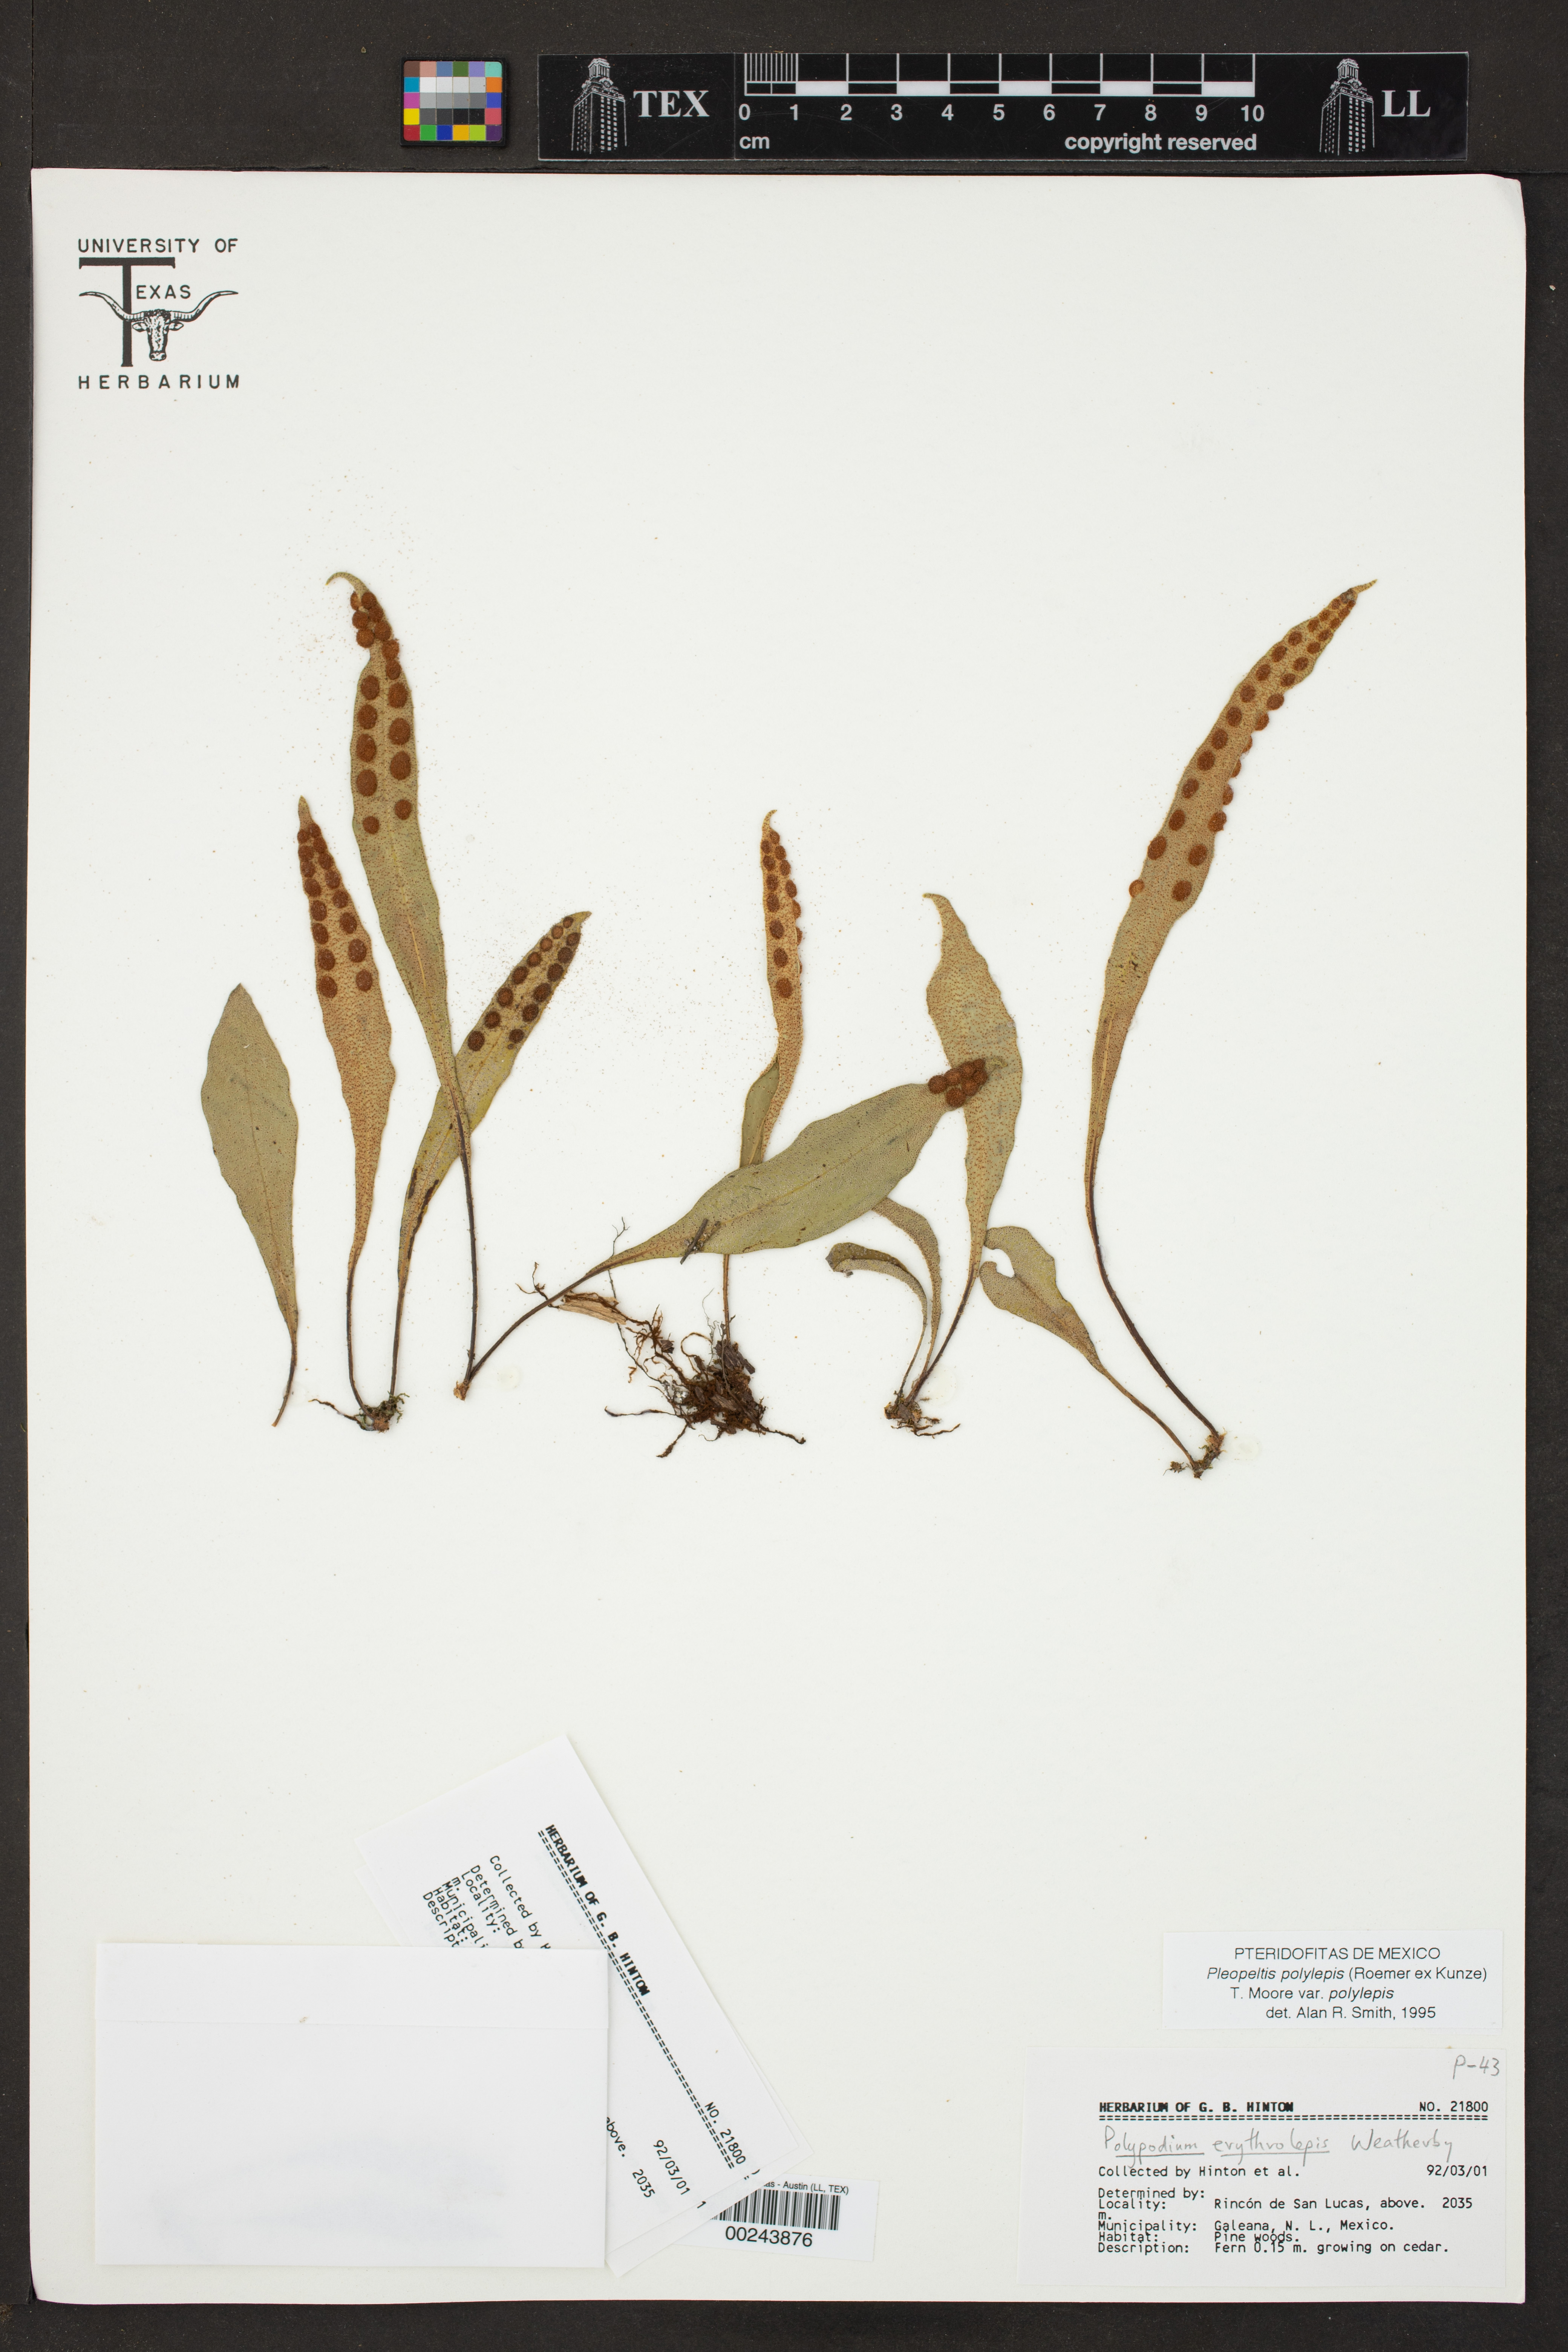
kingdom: Plantae
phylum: Tracheophyta
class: Polypodiopsida
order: Polypodiales
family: Polypodiaceae
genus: Pleopeltis
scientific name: Pleopeltis polylepis
